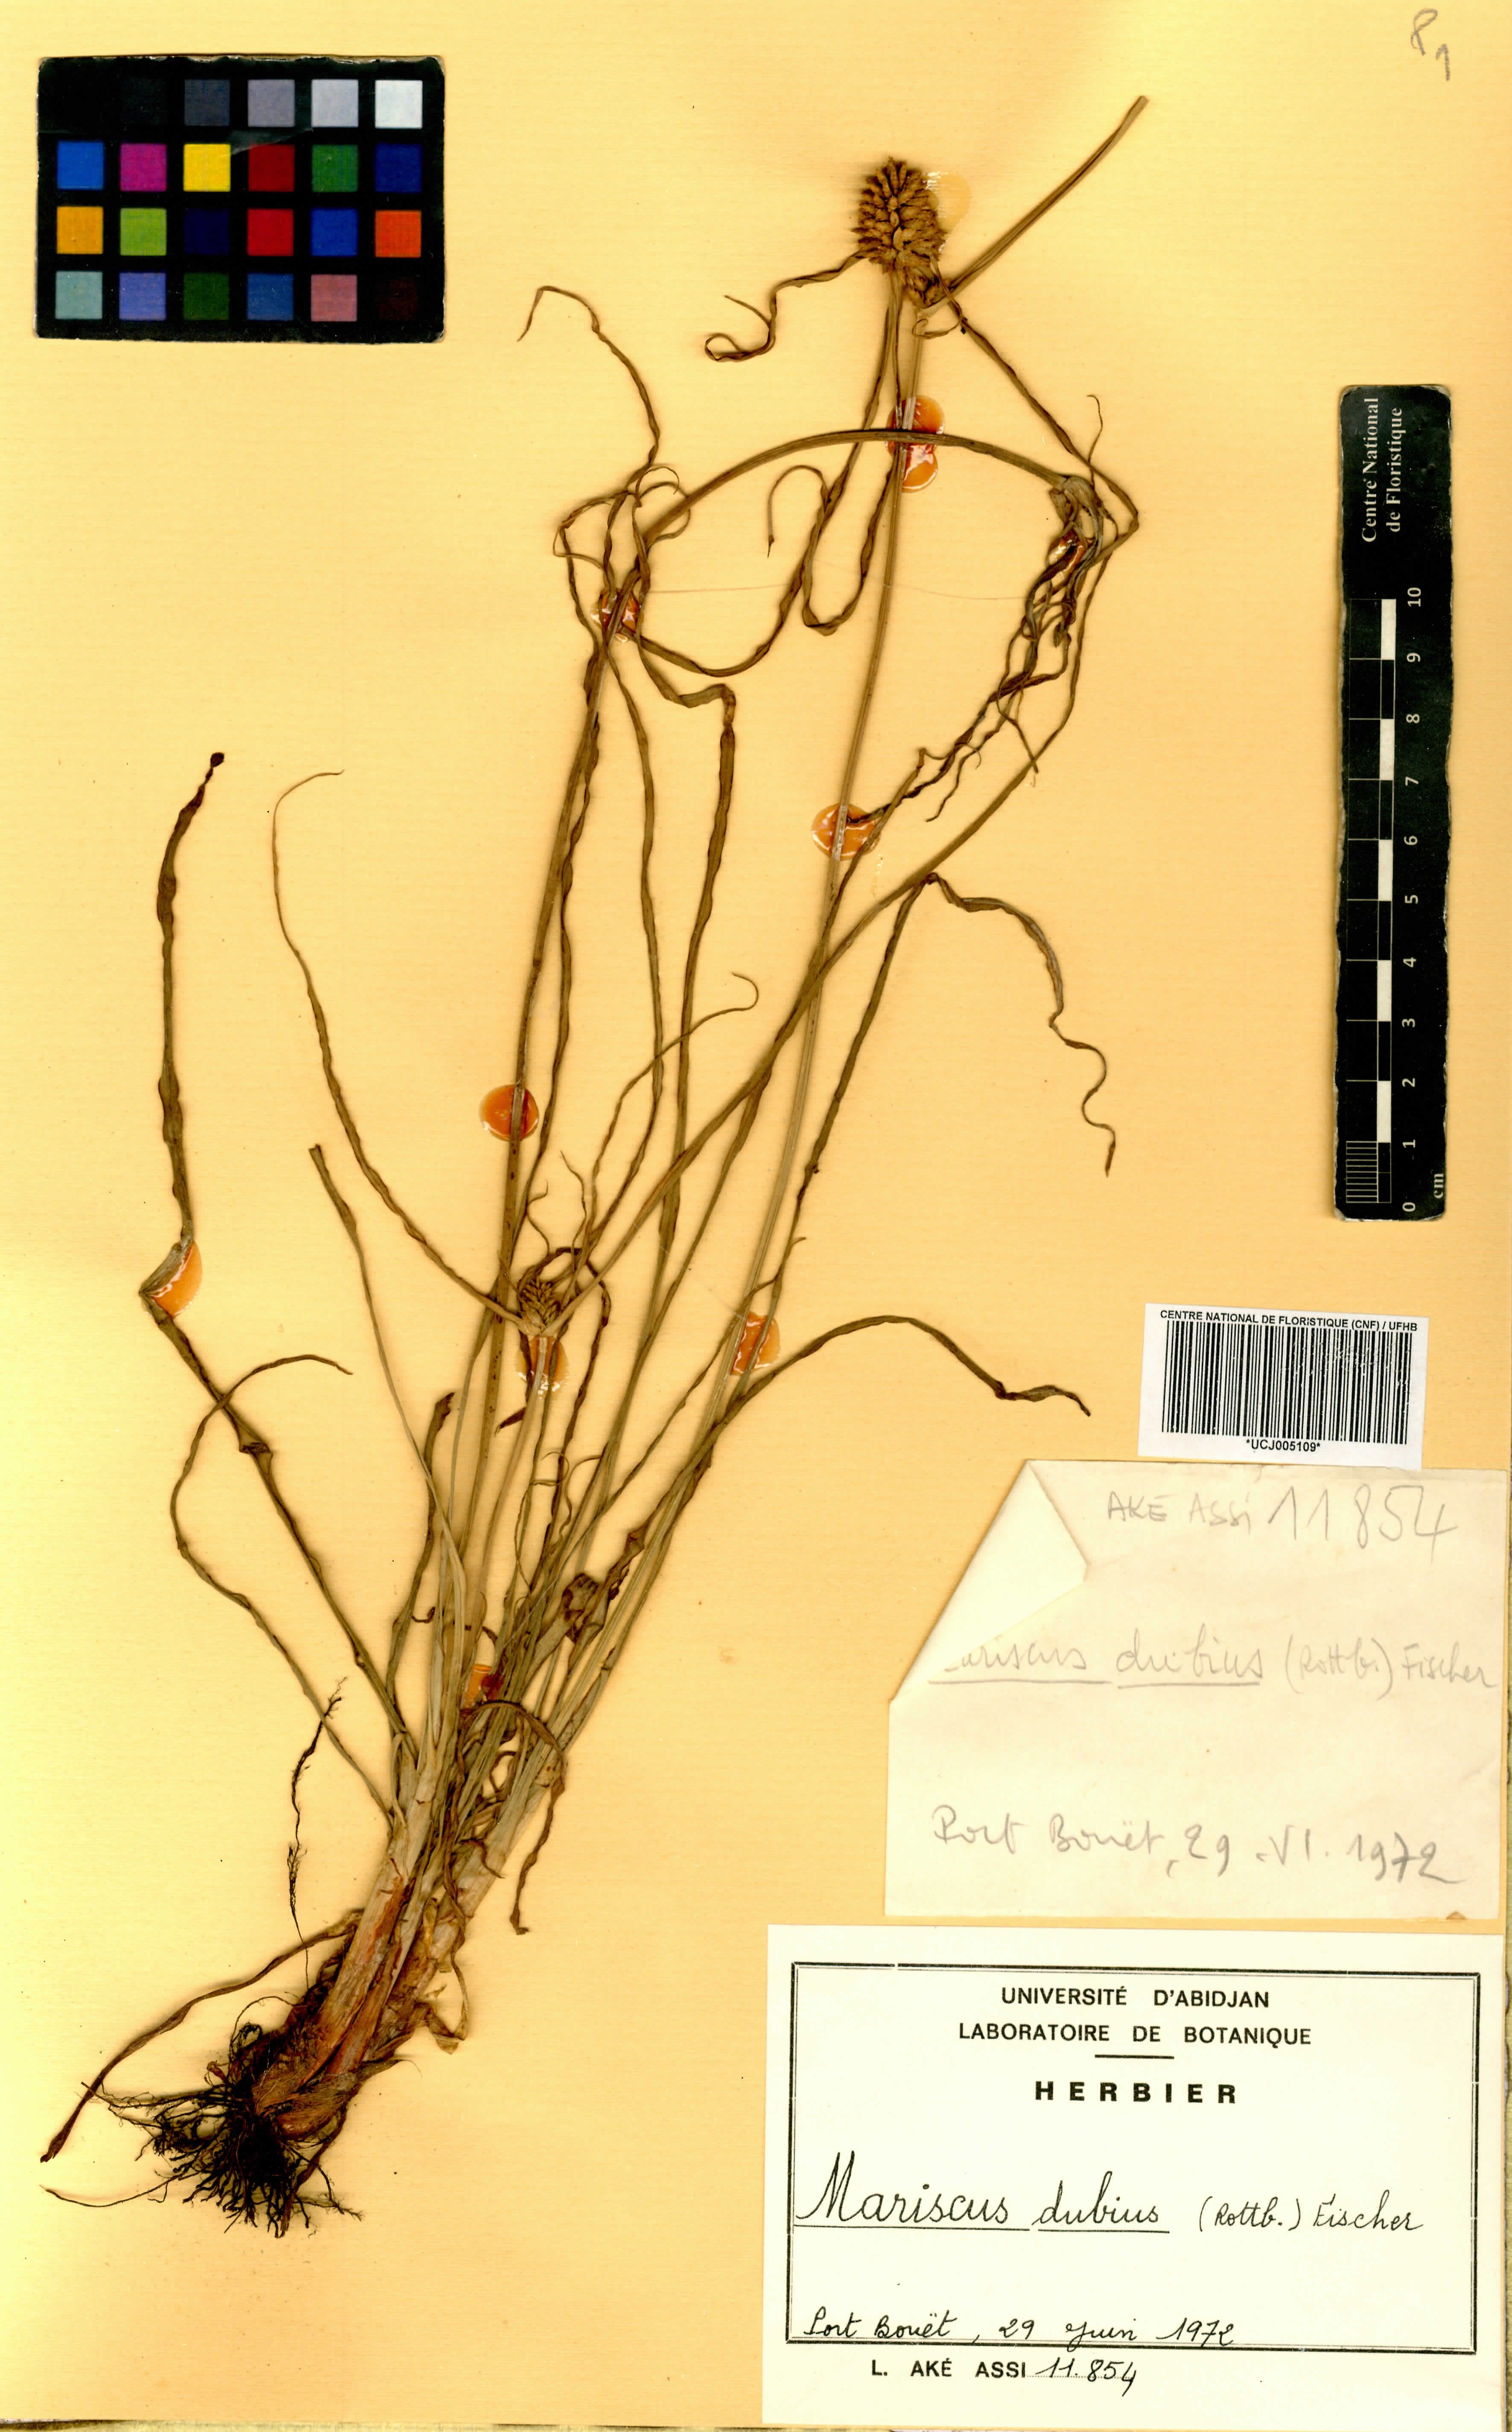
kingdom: Plantae
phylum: Tracheophyta
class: Liliopsida
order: Poales
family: Cyperaceae
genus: Cyperus
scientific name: Cyperus dubius
